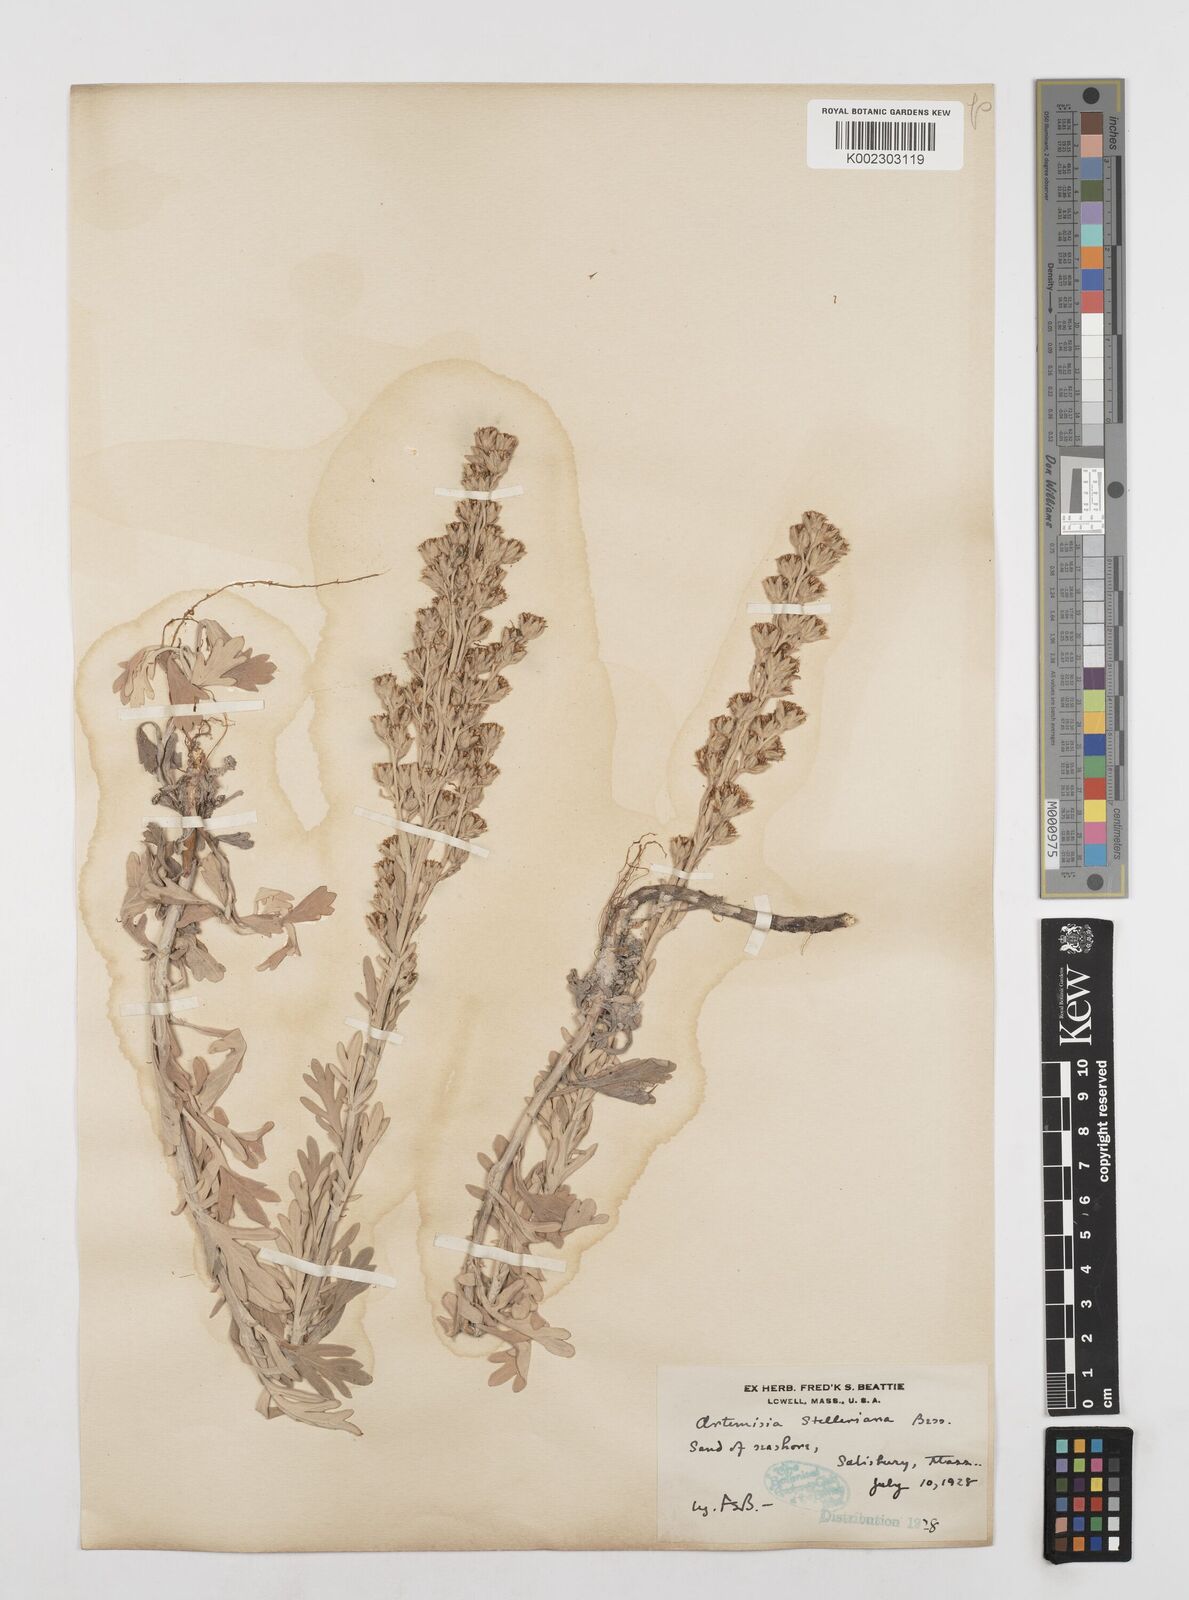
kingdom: Plantae
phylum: Tracheophyta
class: Magnoliopsida
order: Asterales
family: Asteraceae
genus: Artemisia
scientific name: Artemisia stelleriana
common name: Beach wormwood
